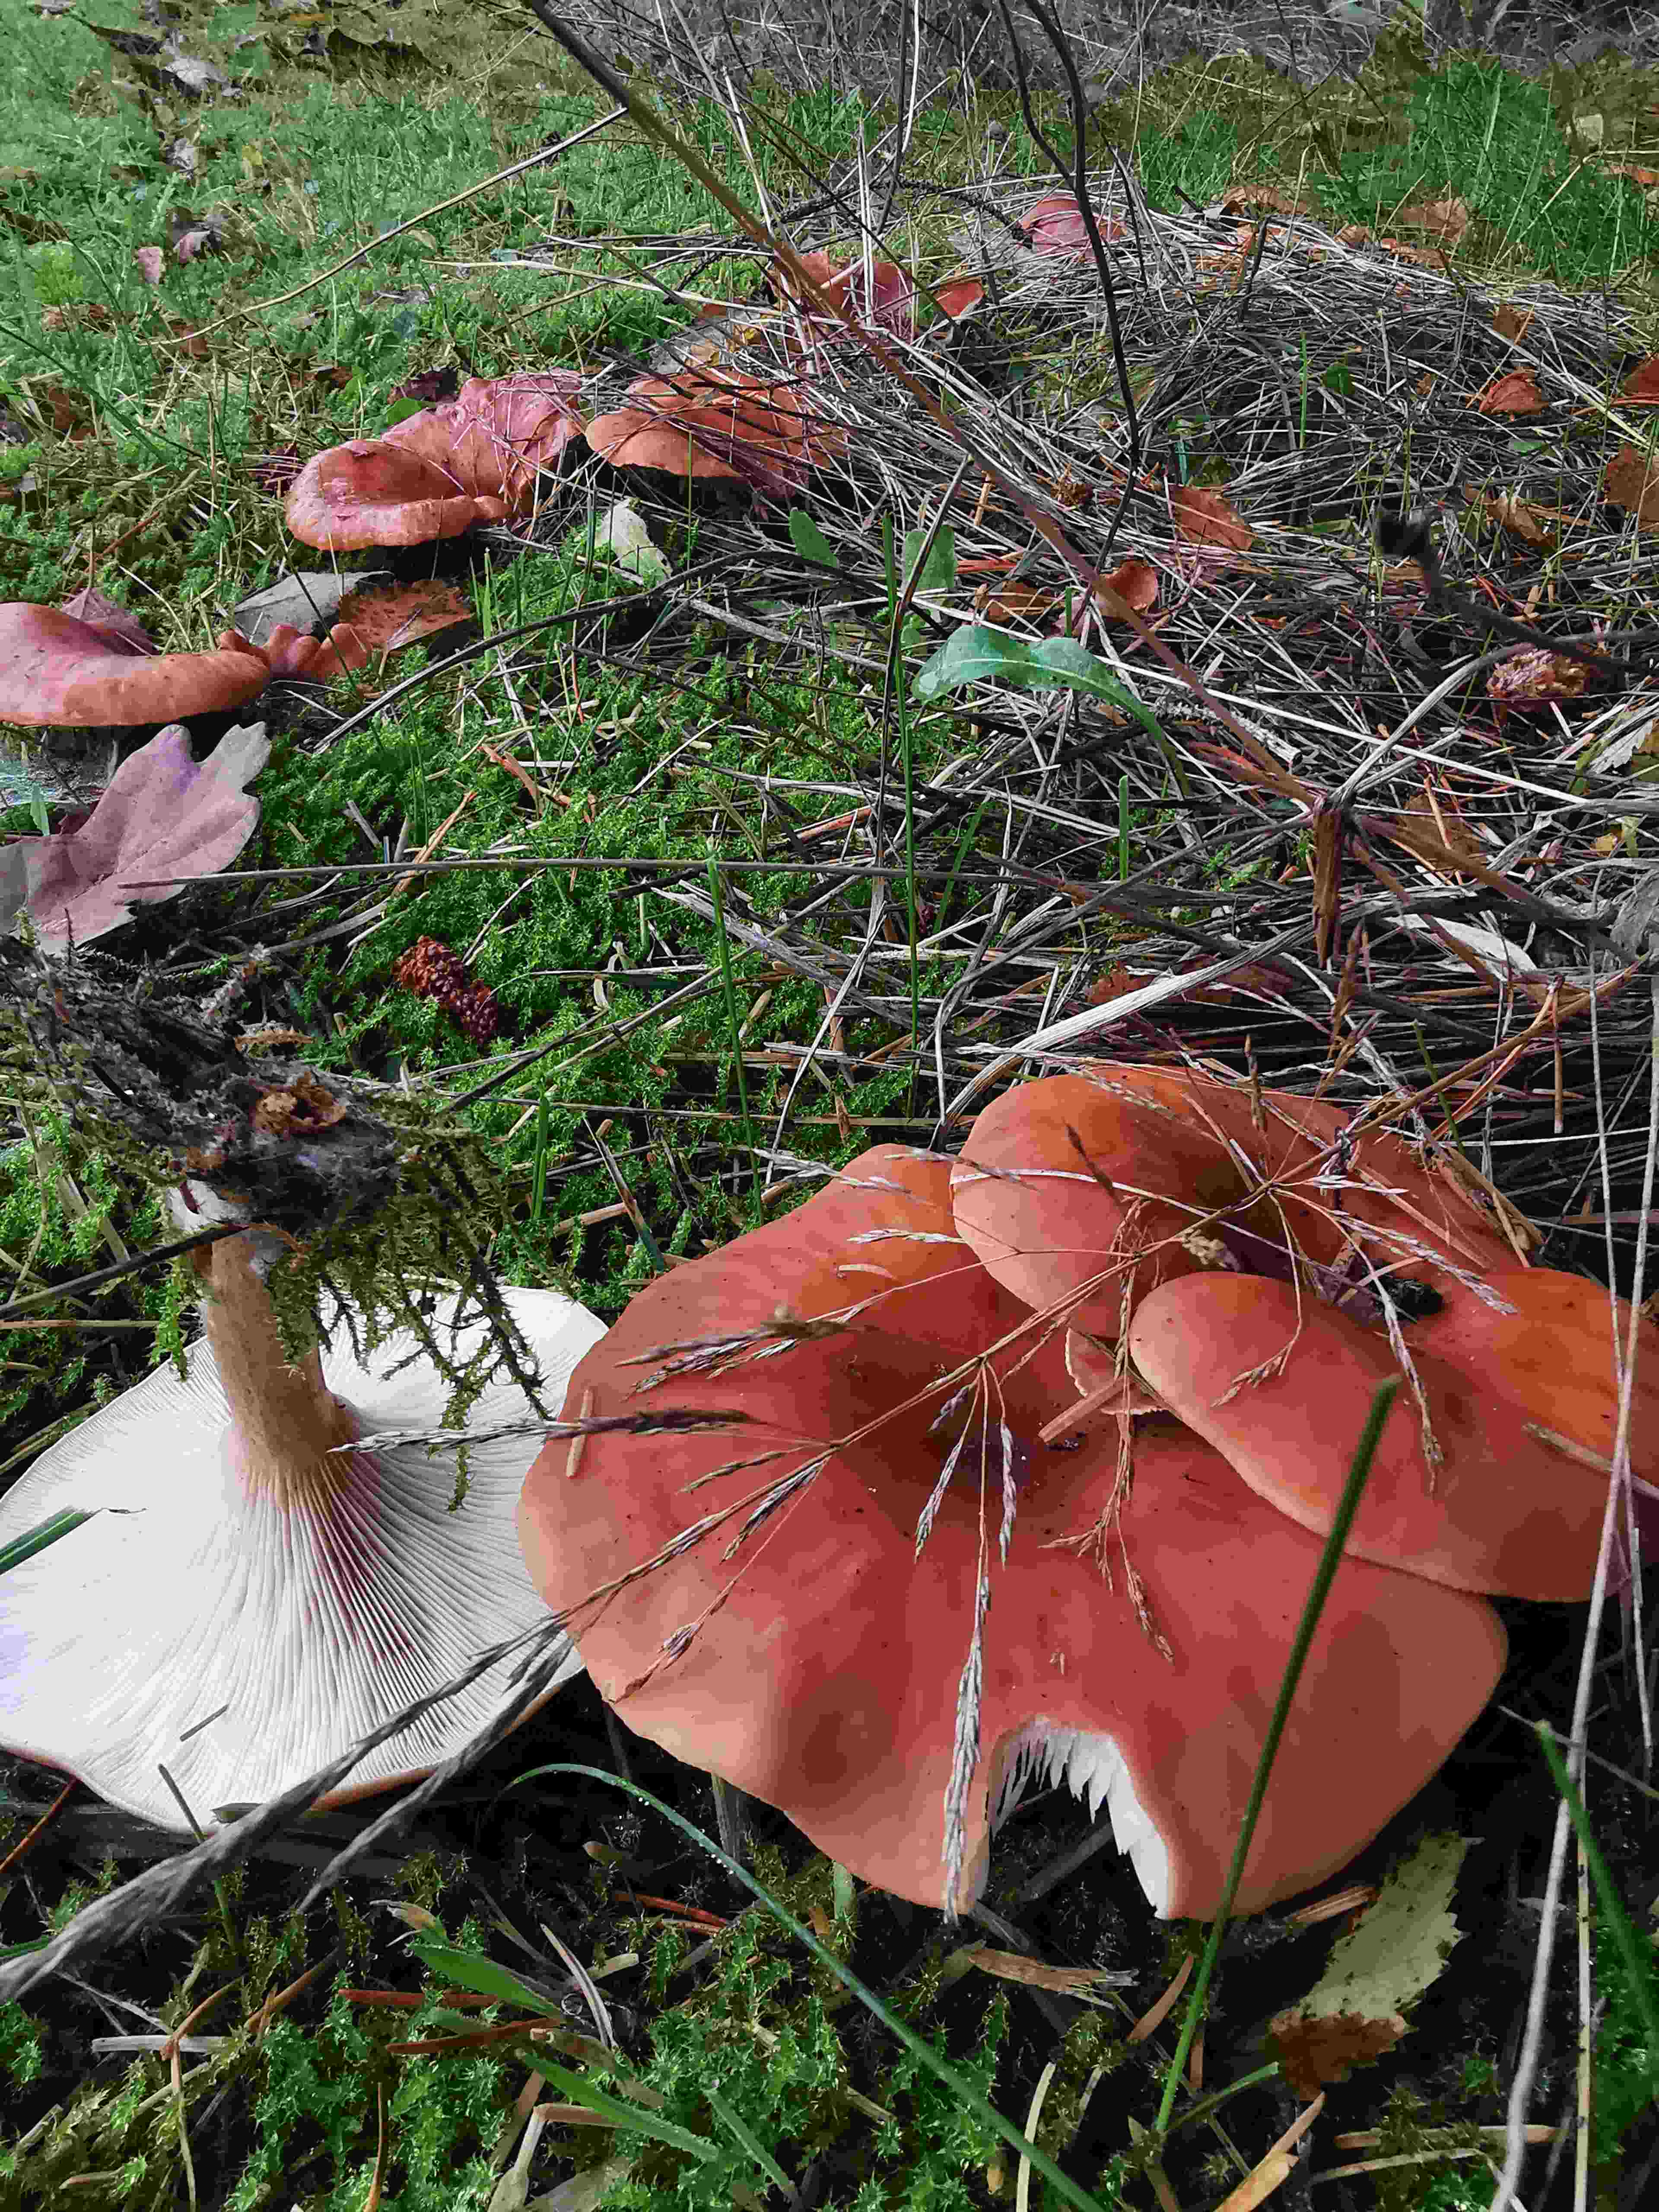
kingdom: Fungi
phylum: Basidiomycota
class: Agaricomycetes
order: Agaricales
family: Tricholomataceae
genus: Paralepista
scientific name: Paralepista flaccida
